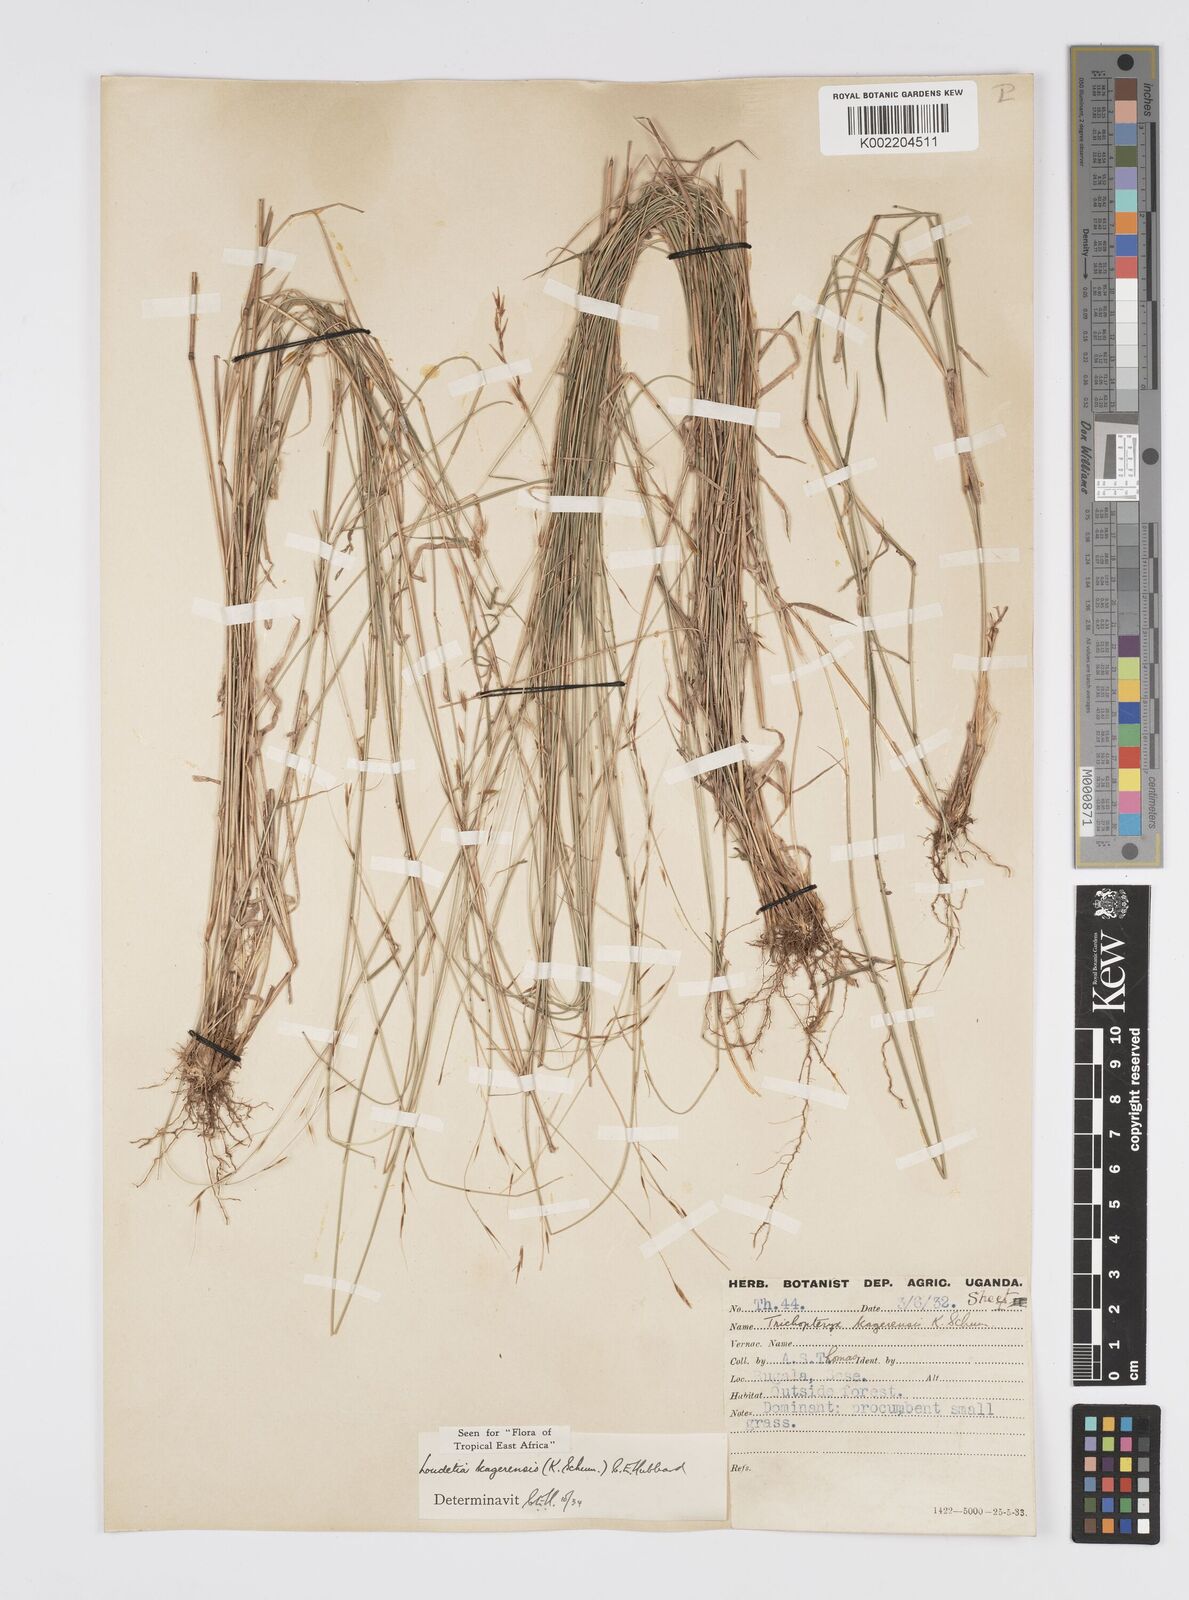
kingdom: Plantae
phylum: Tracheophyta
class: Liliopsida
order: Poales
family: Poaceae
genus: Loudetia
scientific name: Loudetia kagerensis
